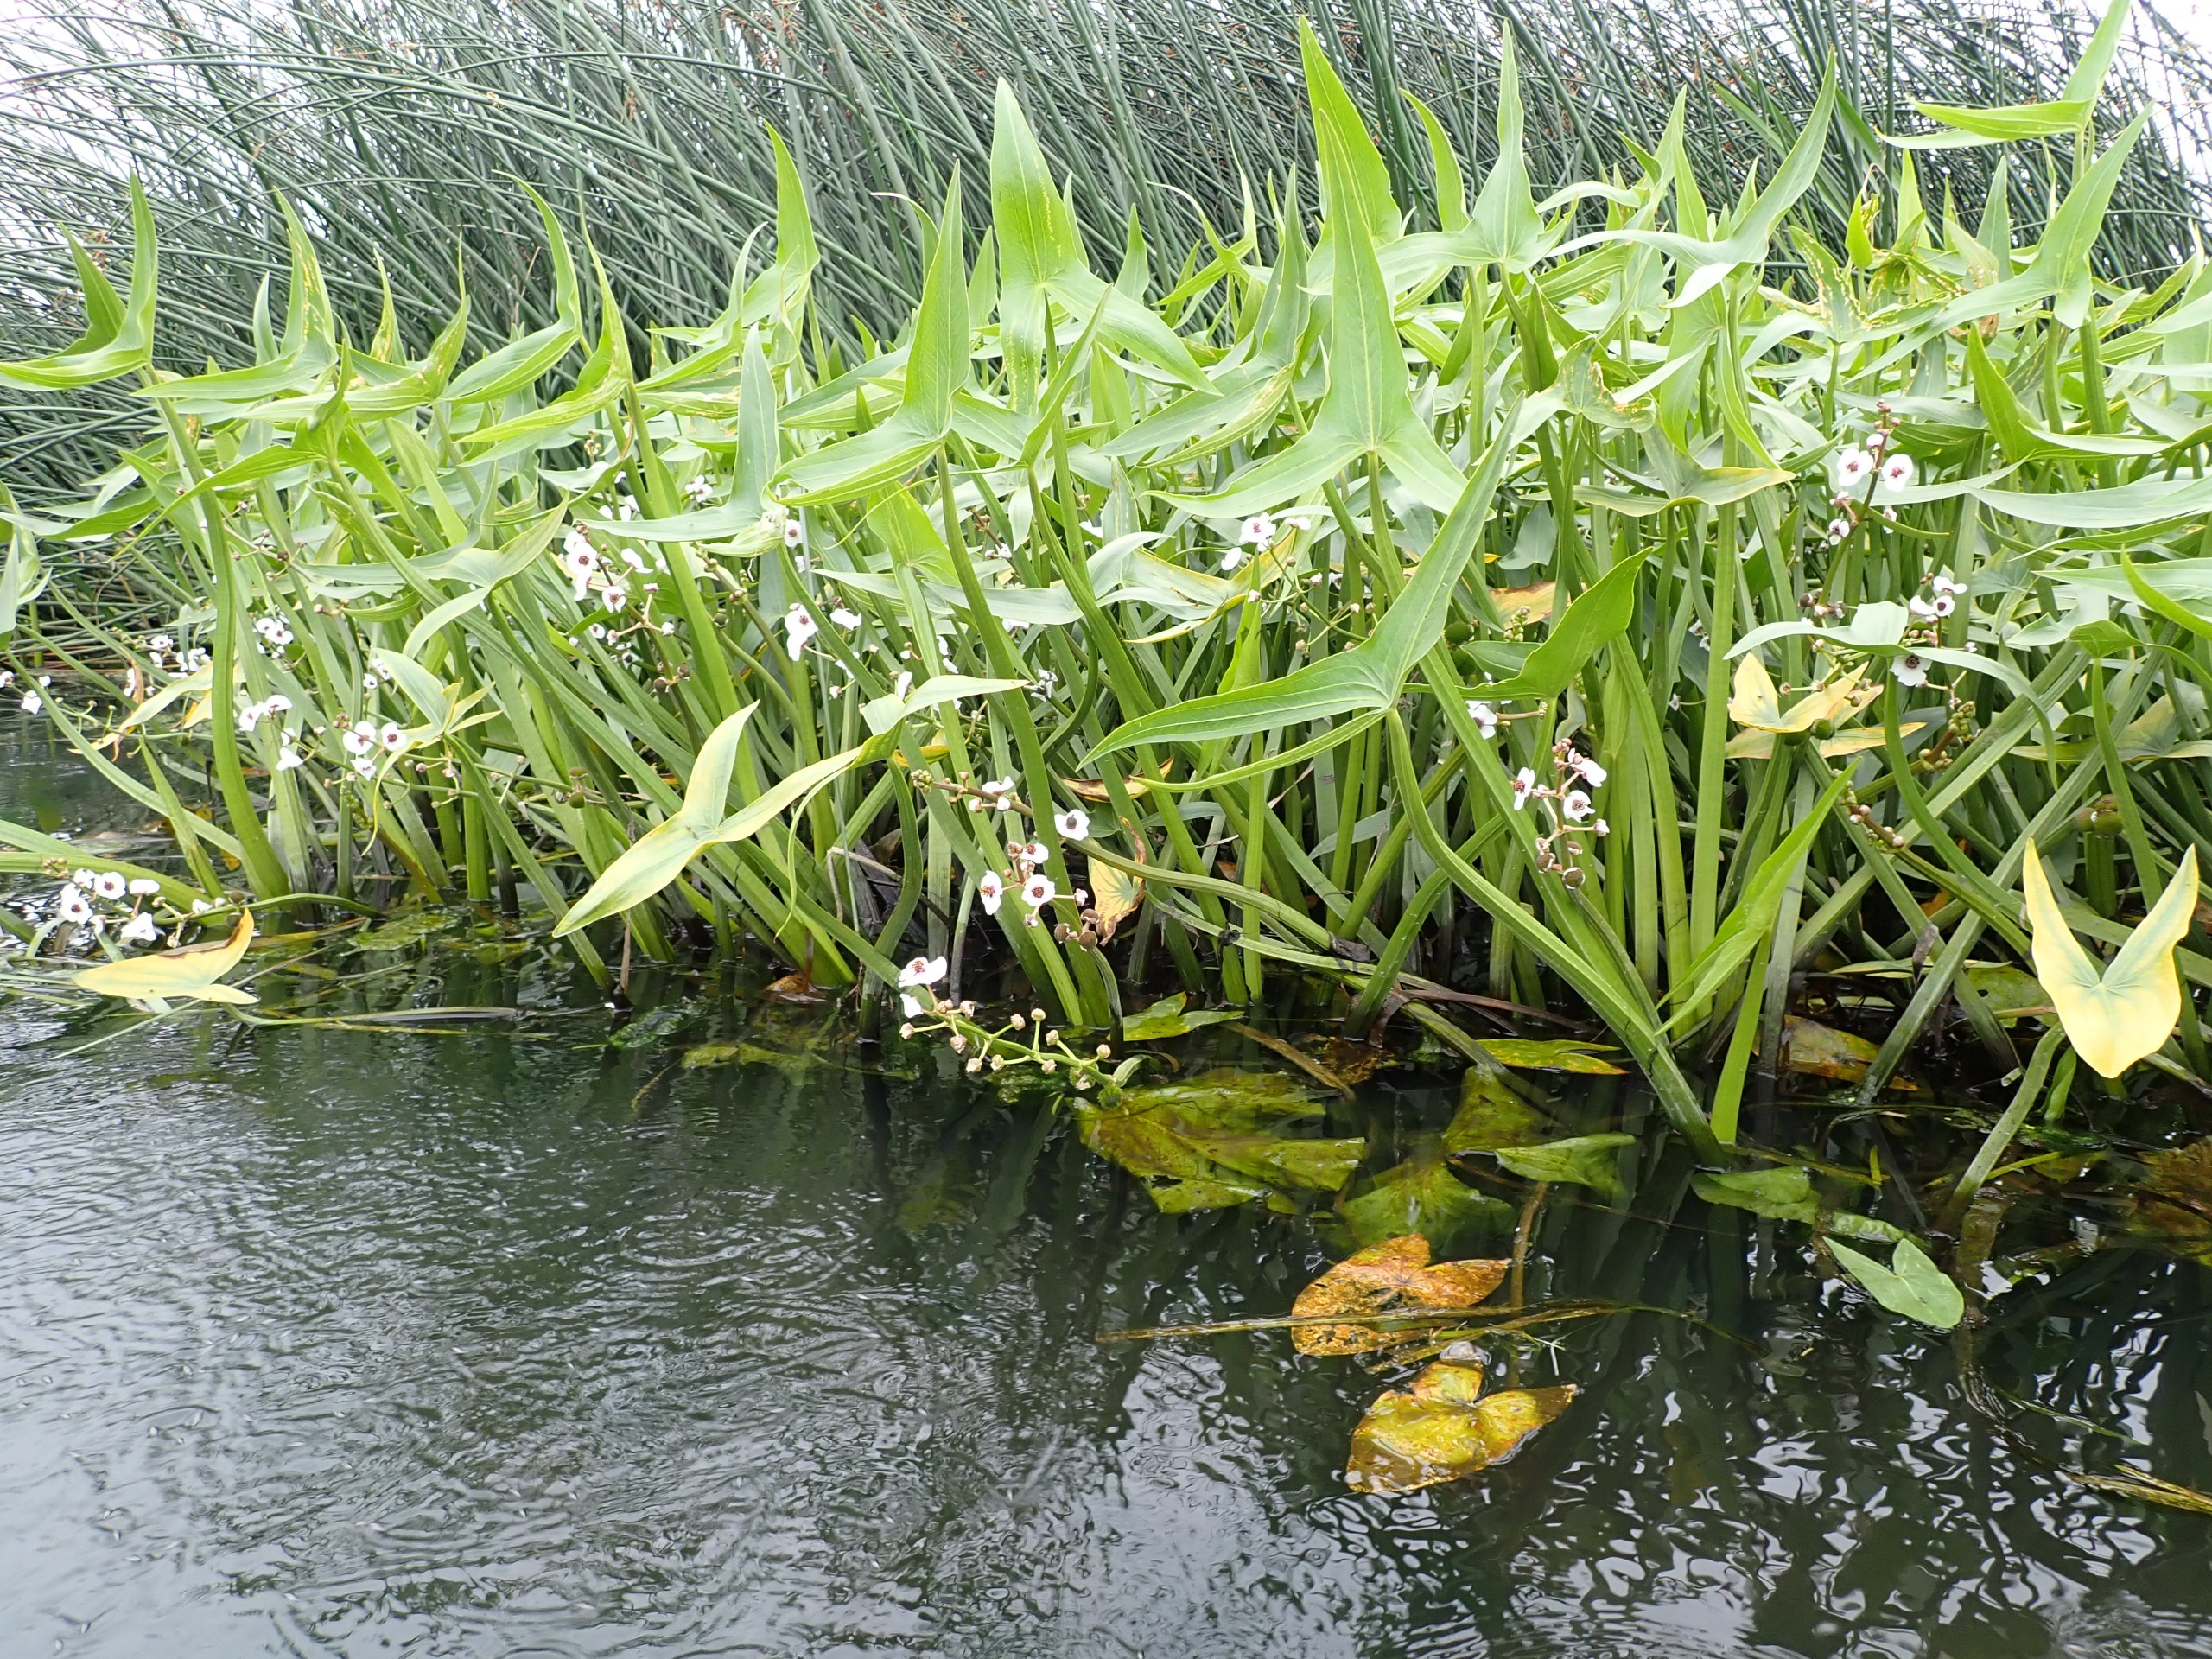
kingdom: Plantae
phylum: Tracheophyta
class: Liliopsida
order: Alismatales
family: Alismataceae
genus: Sagittaria
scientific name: Sagittaria sagittifolia
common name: Pilblad
